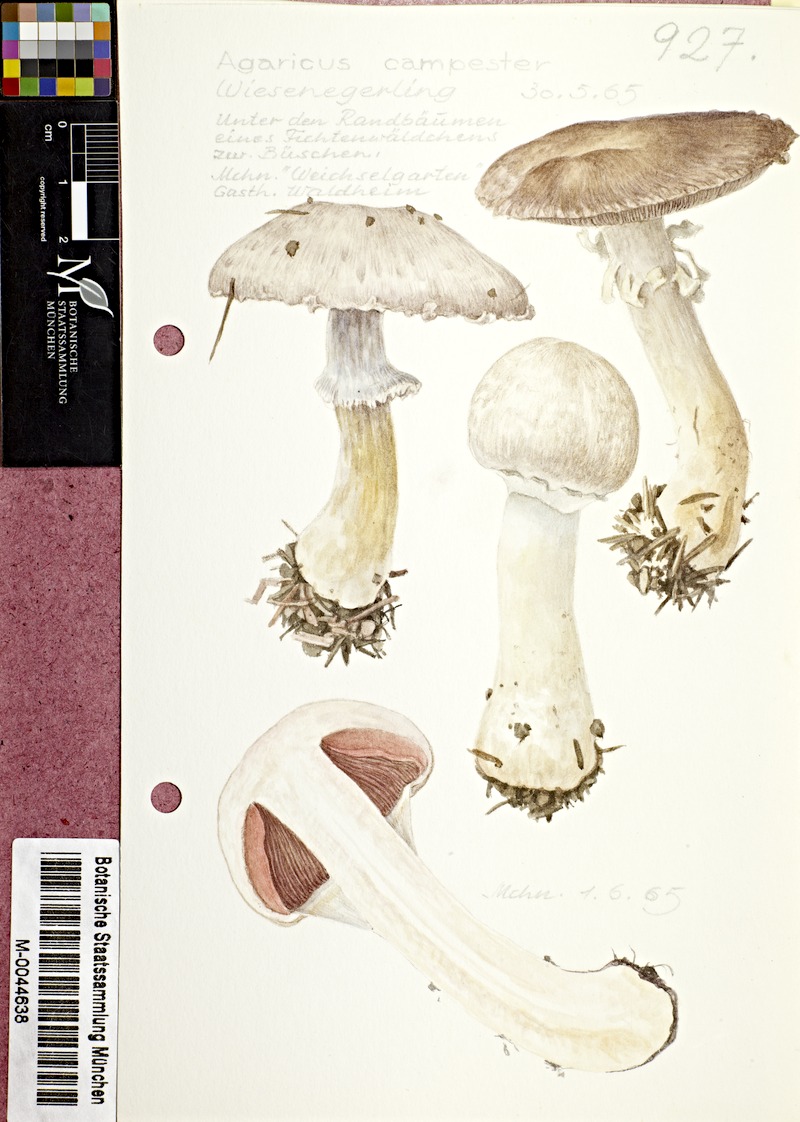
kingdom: Fungi
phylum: Basidiomycota
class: Agaricomycetes
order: Agaricales
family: Agaricaceae
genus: Agaricus
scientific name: Agaricus campestris
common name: Field mushroom
